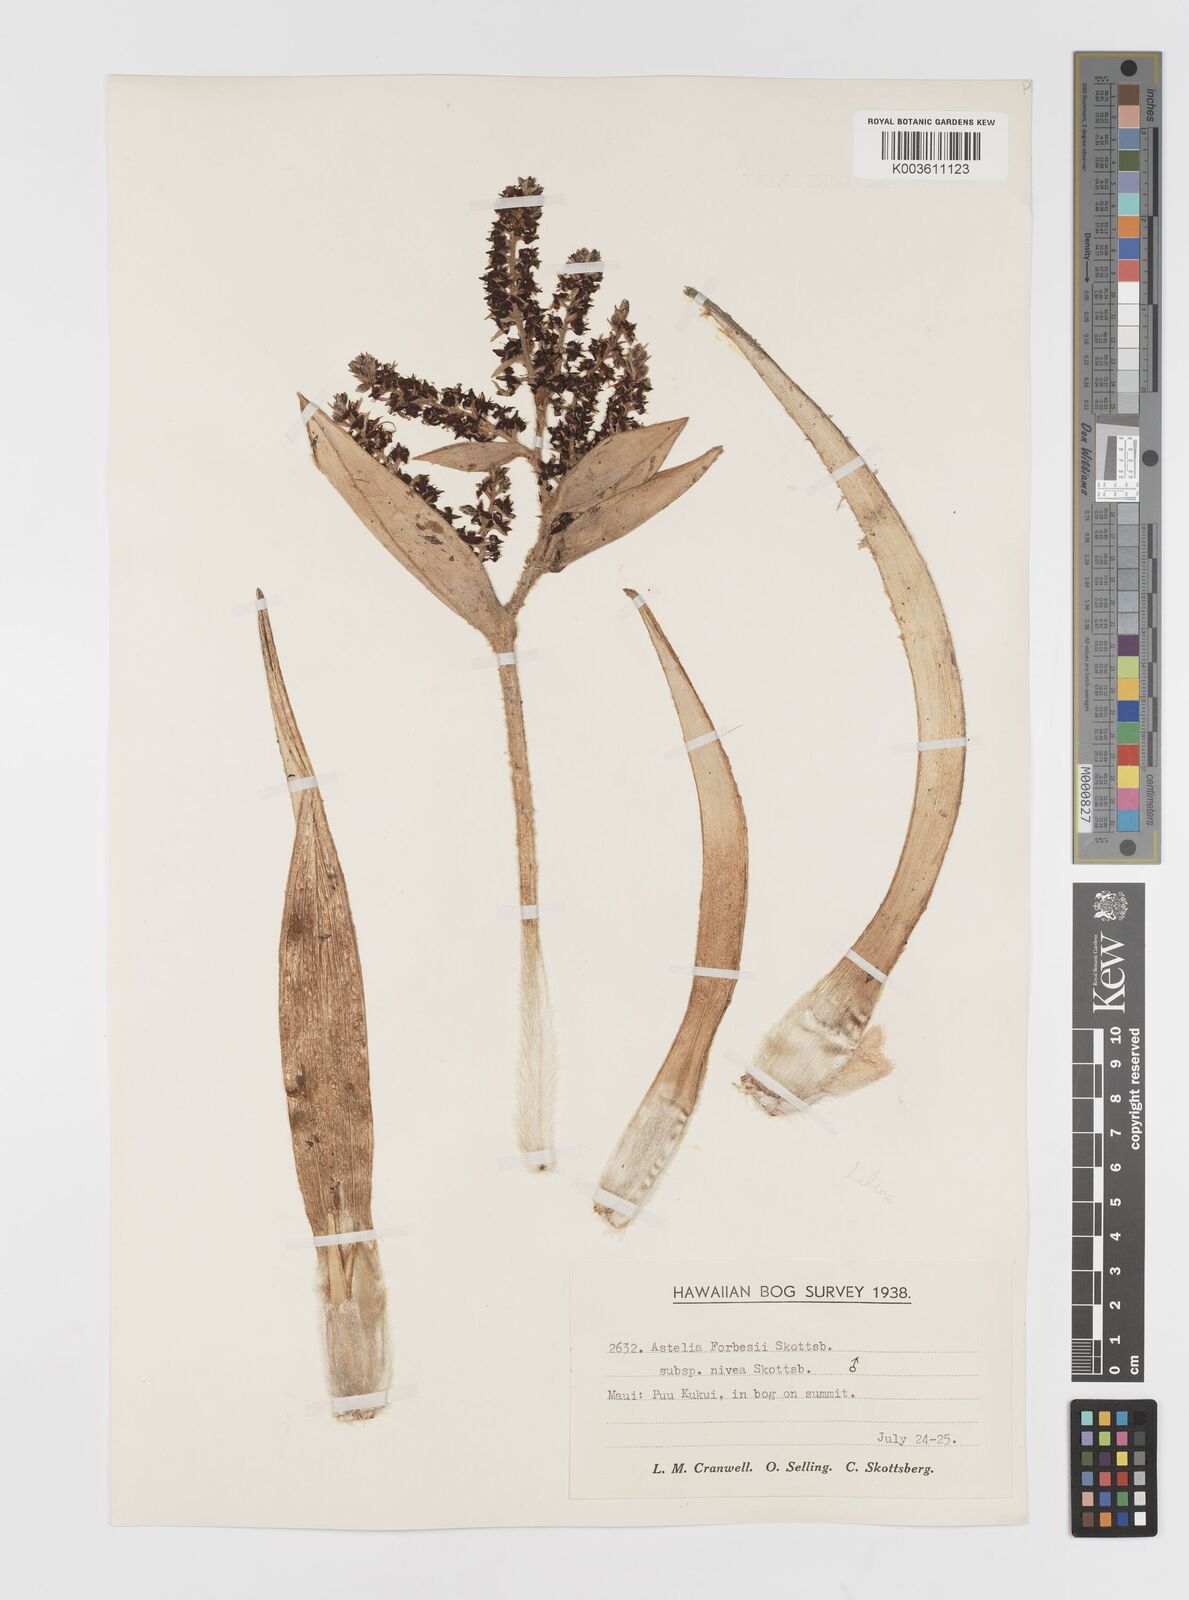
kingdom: Plantae
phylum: Tracheophyta
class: Liliopsida
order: Asparagales
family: Asteliaceae
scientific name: Asteliaceae
